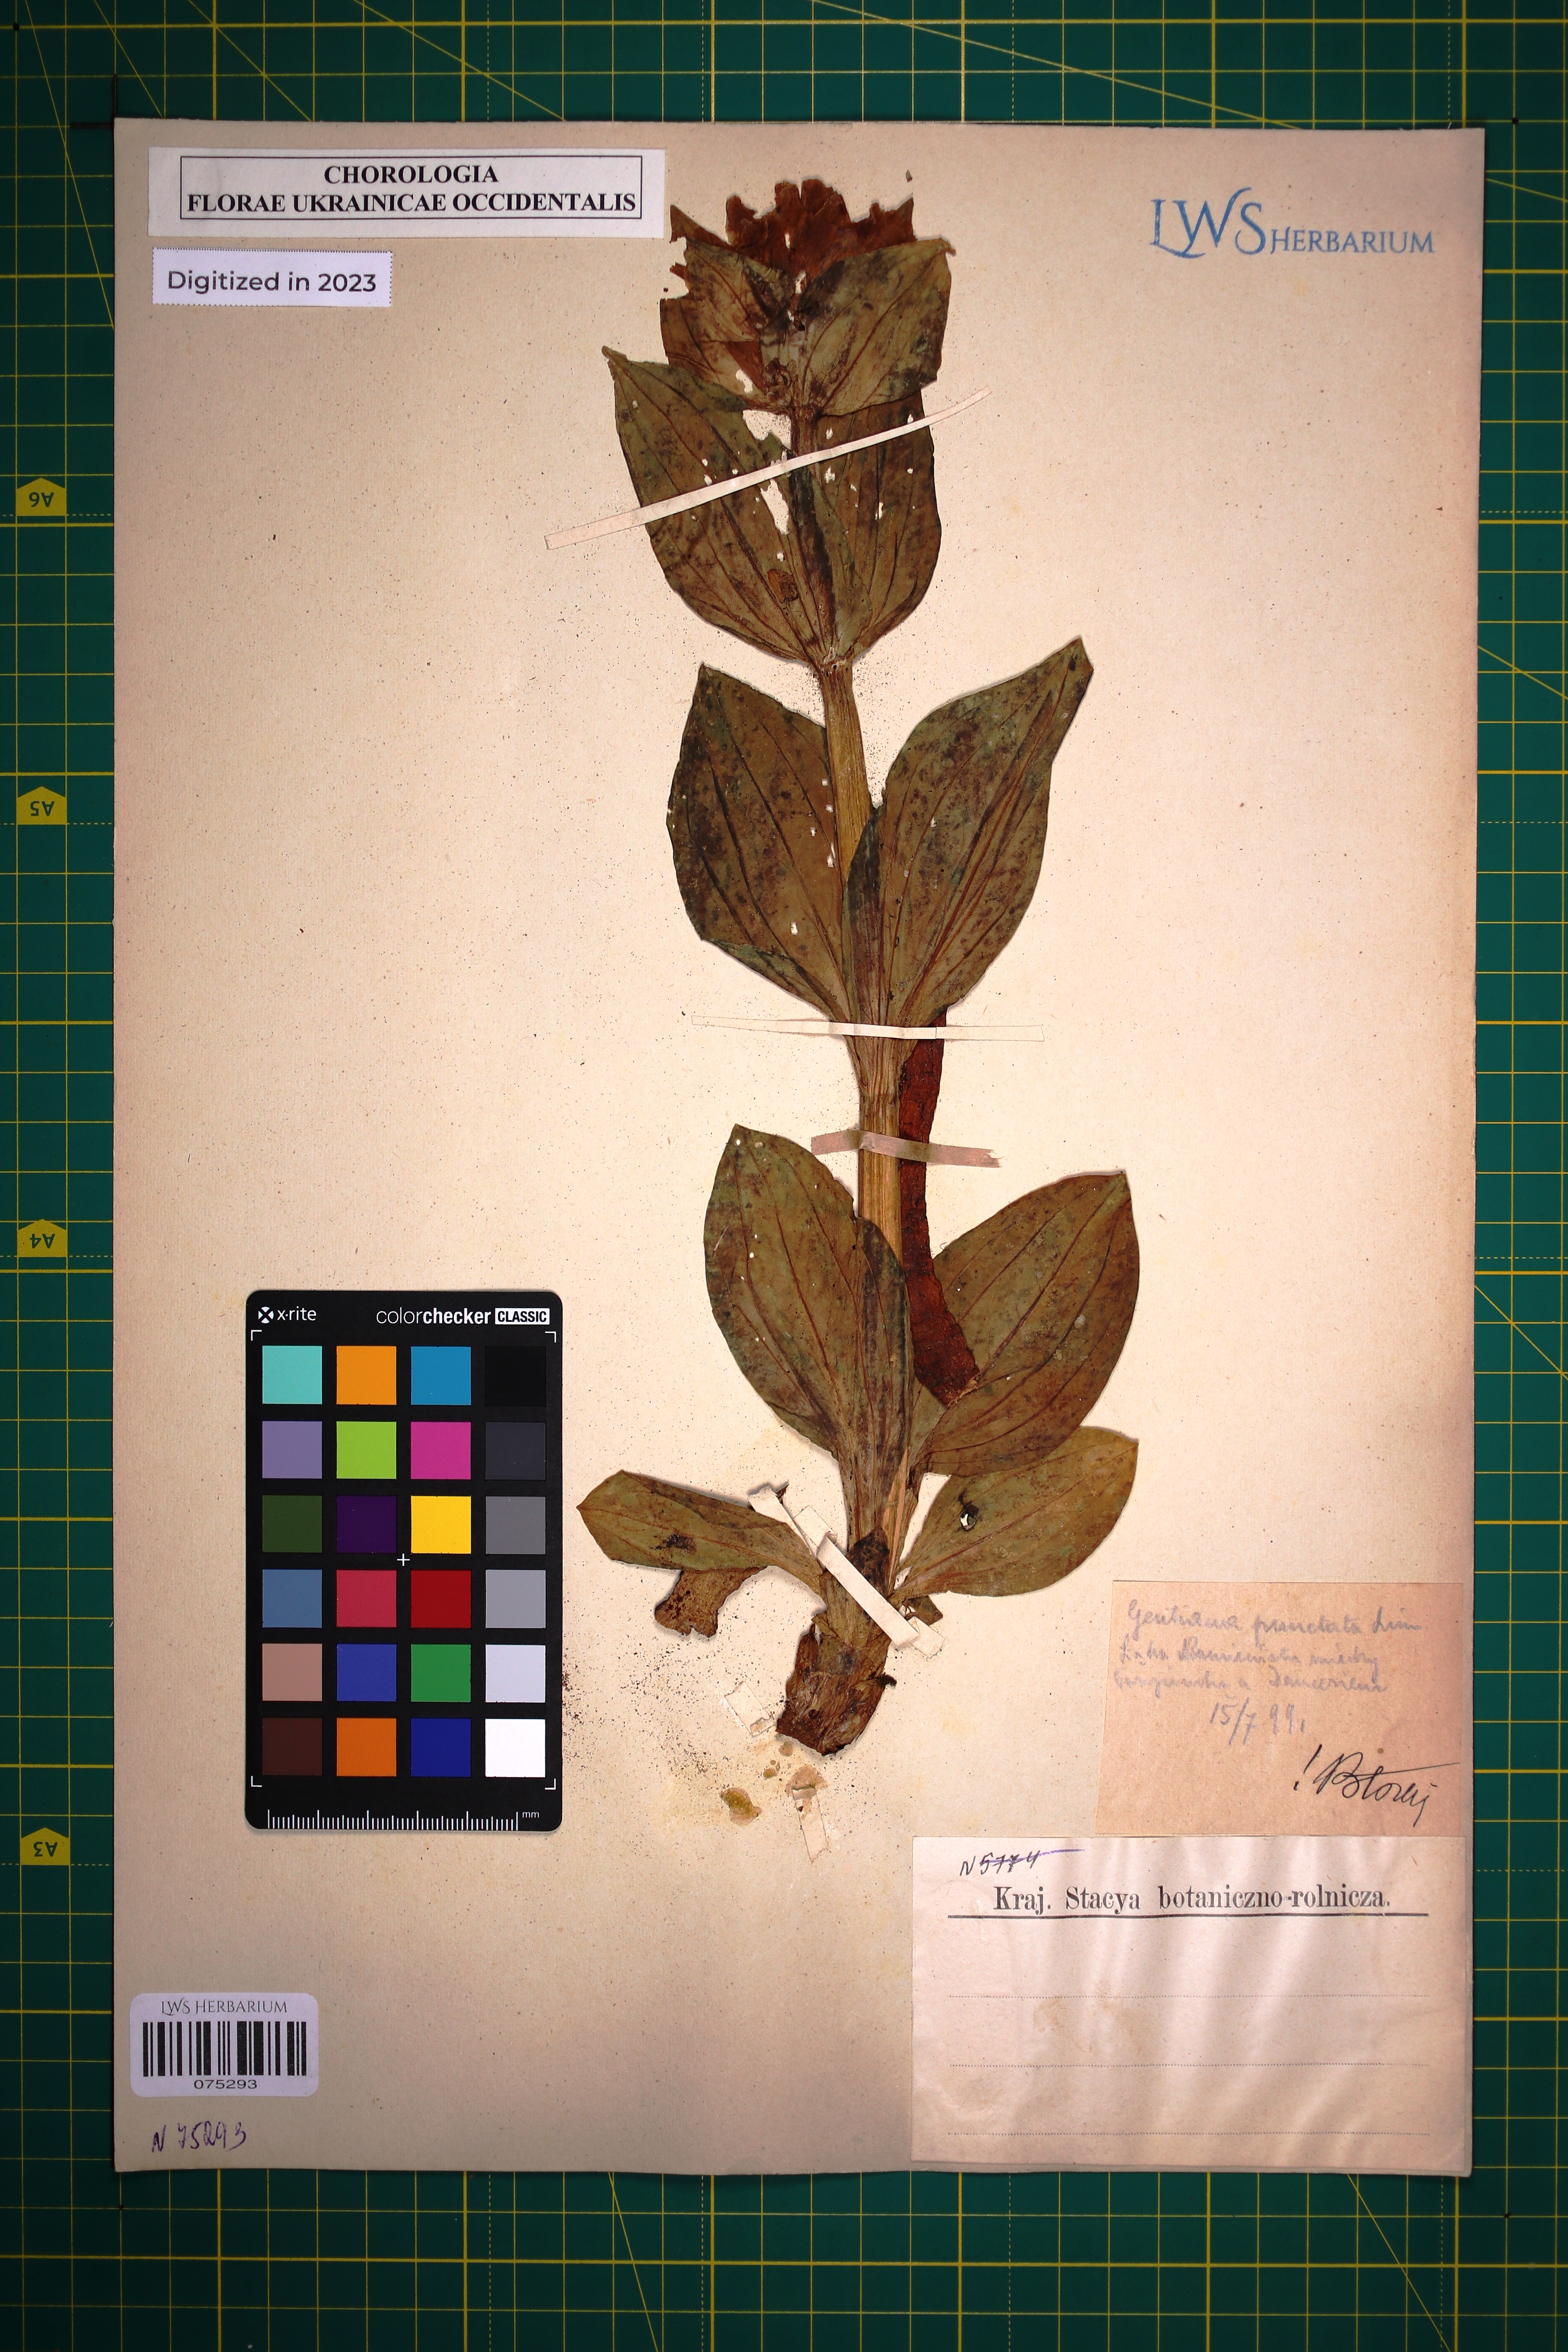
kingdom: Plantae
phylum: Tracheophyta
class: Magnoliopsida
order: Gentianales
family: Gentianaceae
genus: Gentiana
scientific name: Gentiana punctata
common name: Spotted gentian
